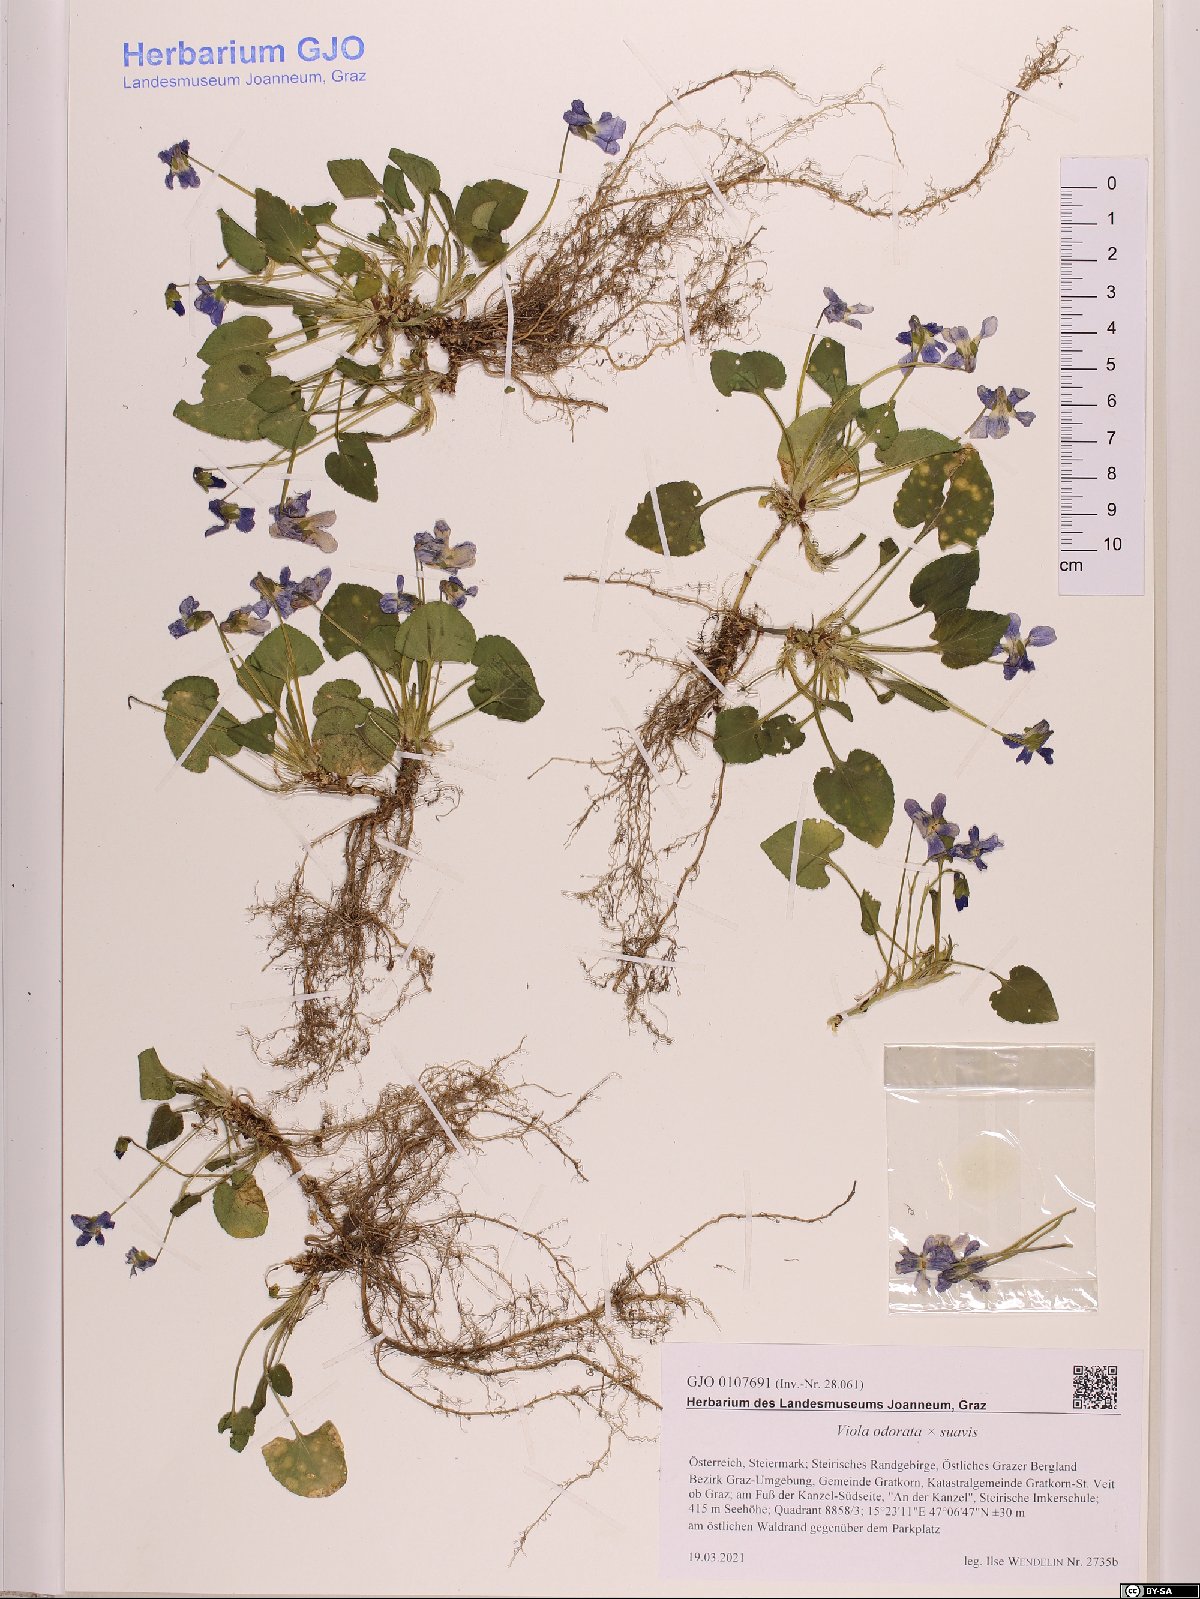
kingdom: Plantae
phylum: Tracheophyta
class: Magnoliopsida
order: Malpighiales
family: Violaceae
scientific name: Violaceae
